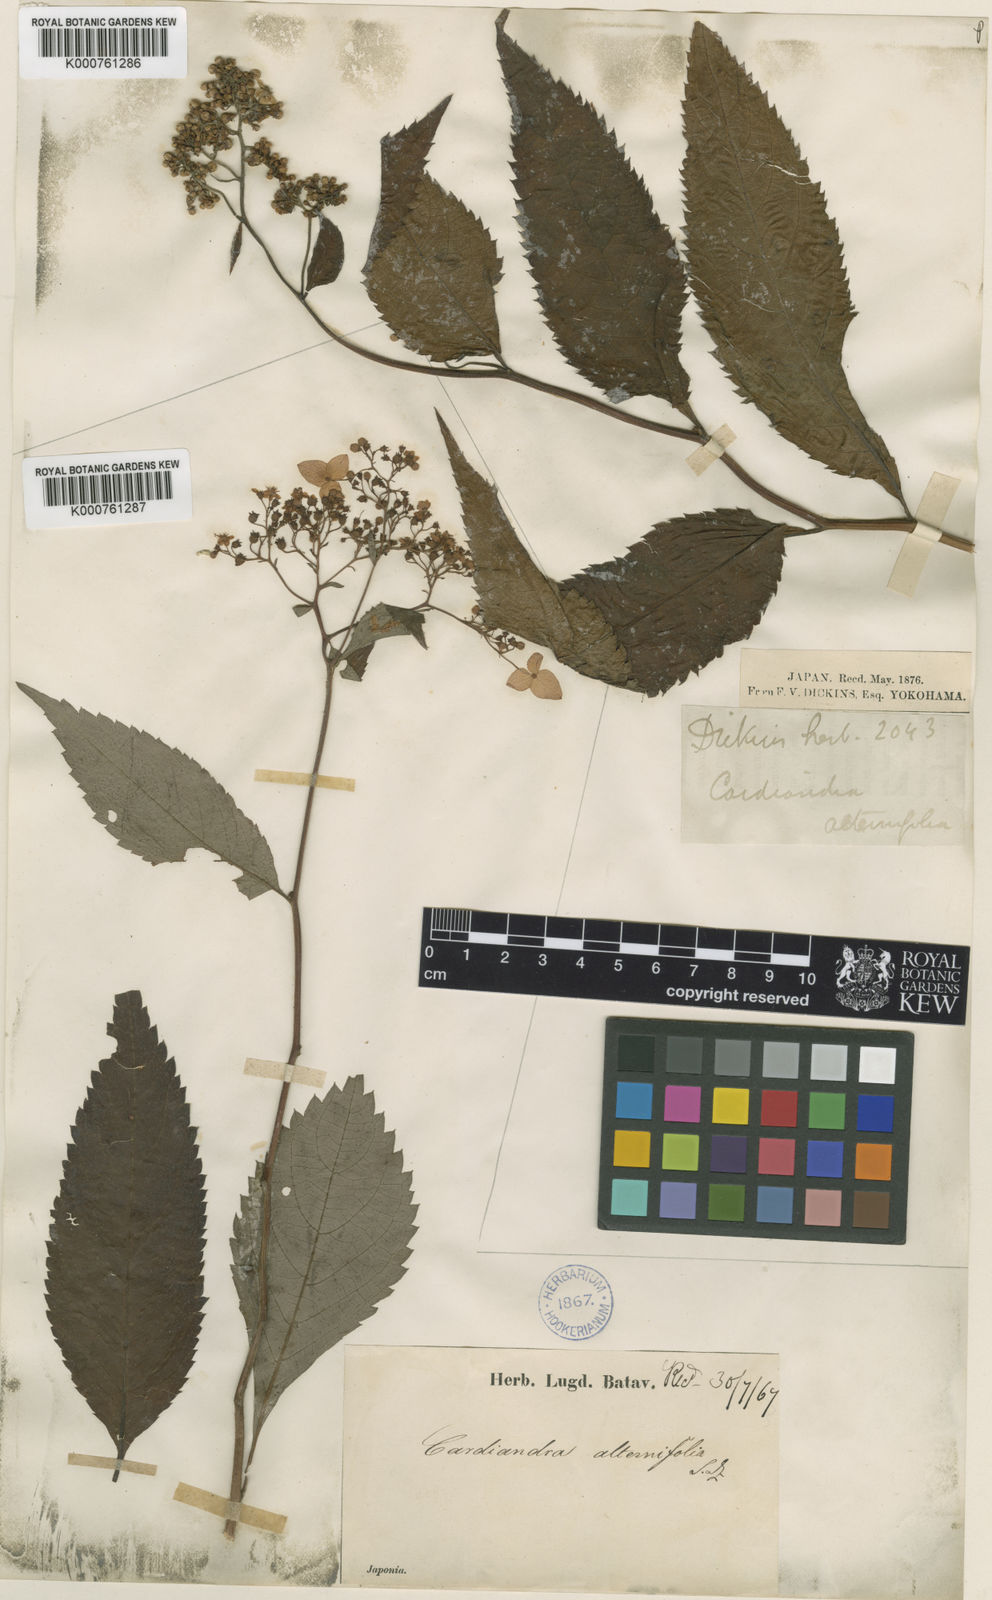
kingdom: Plantae
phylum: Tracheophyta
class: Magnoliopsida
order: Cornales
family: Hydrangeaceae
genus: Hydrangea
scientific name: Hydrangea alternifolia
